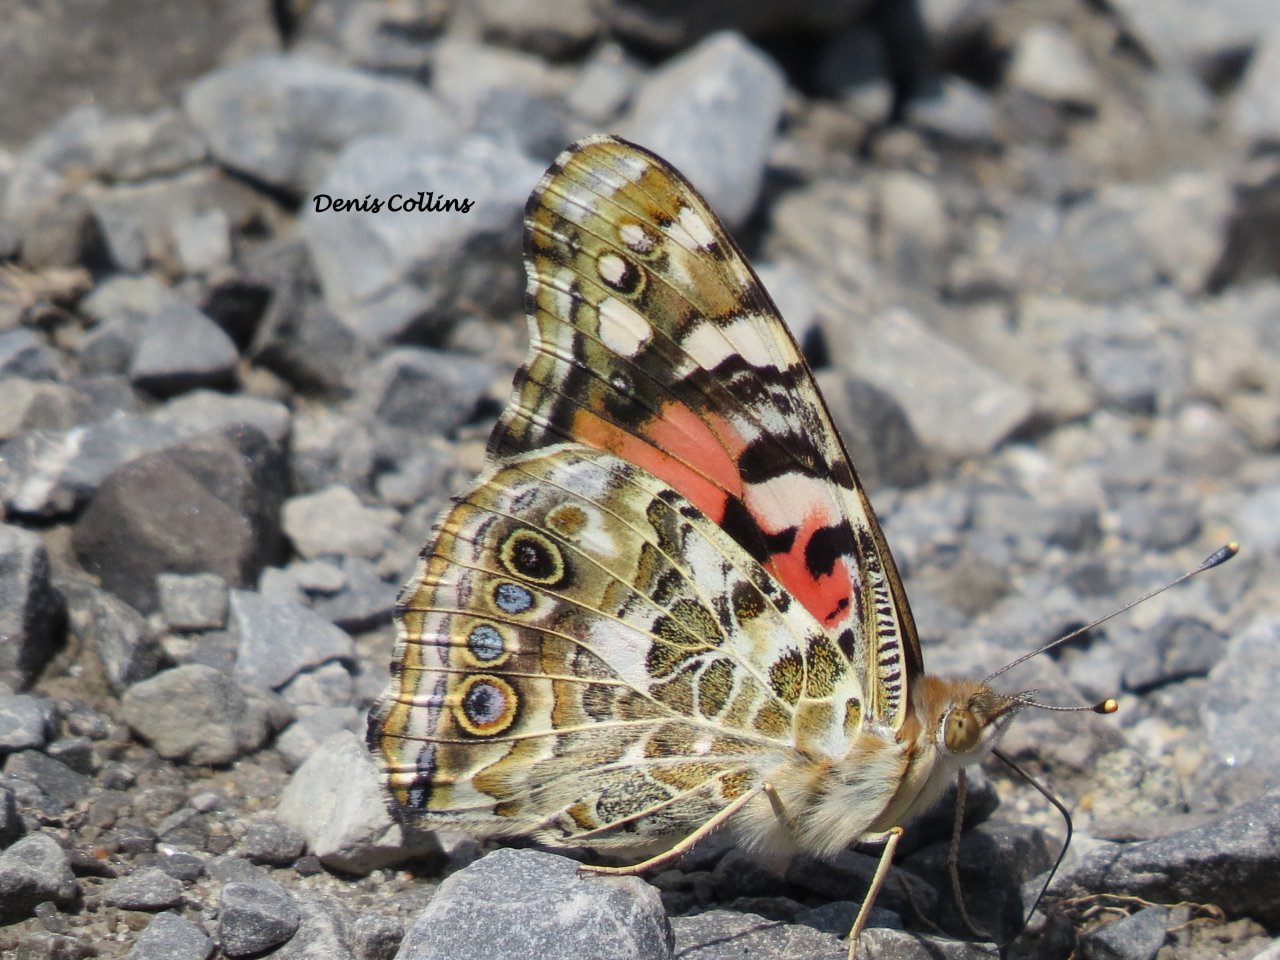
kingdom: Animalia
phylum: Arthropoda
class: Insecta
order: Lepidoptera
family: Nymphalidae
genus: Vanessa
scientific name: Vanessa cardui
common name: Painted Lady
